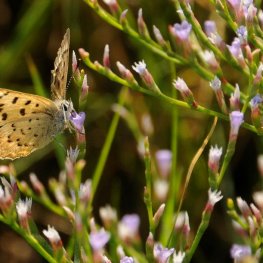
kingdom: Animalia
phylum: Arthropoda
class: Insecta
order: Lepidoptera
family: Lycaenidae
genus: Epidemia
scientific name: Epidemia dorcas
